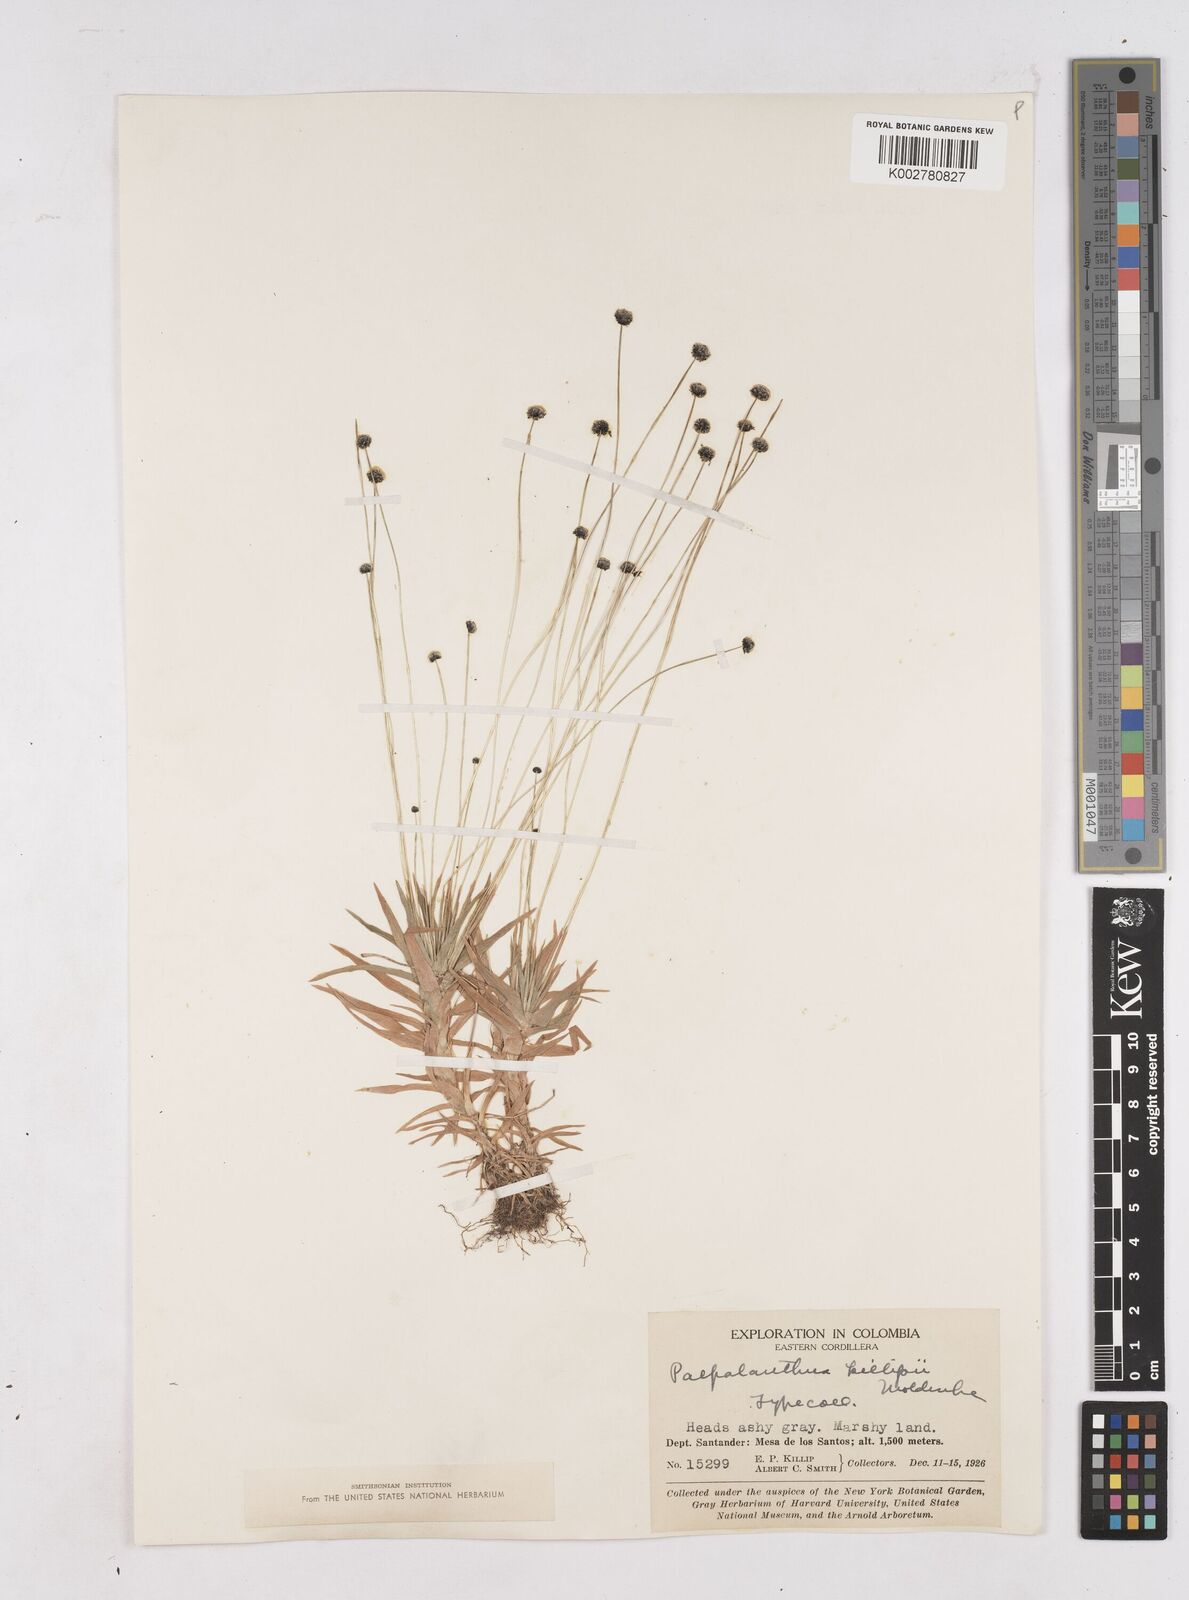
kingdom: Plantae
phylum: Tracheophyta
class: Liliopsida
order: Poales
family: Eriocaulaceae
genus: Paepalanthus
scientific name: Paepalanthus tortilis
